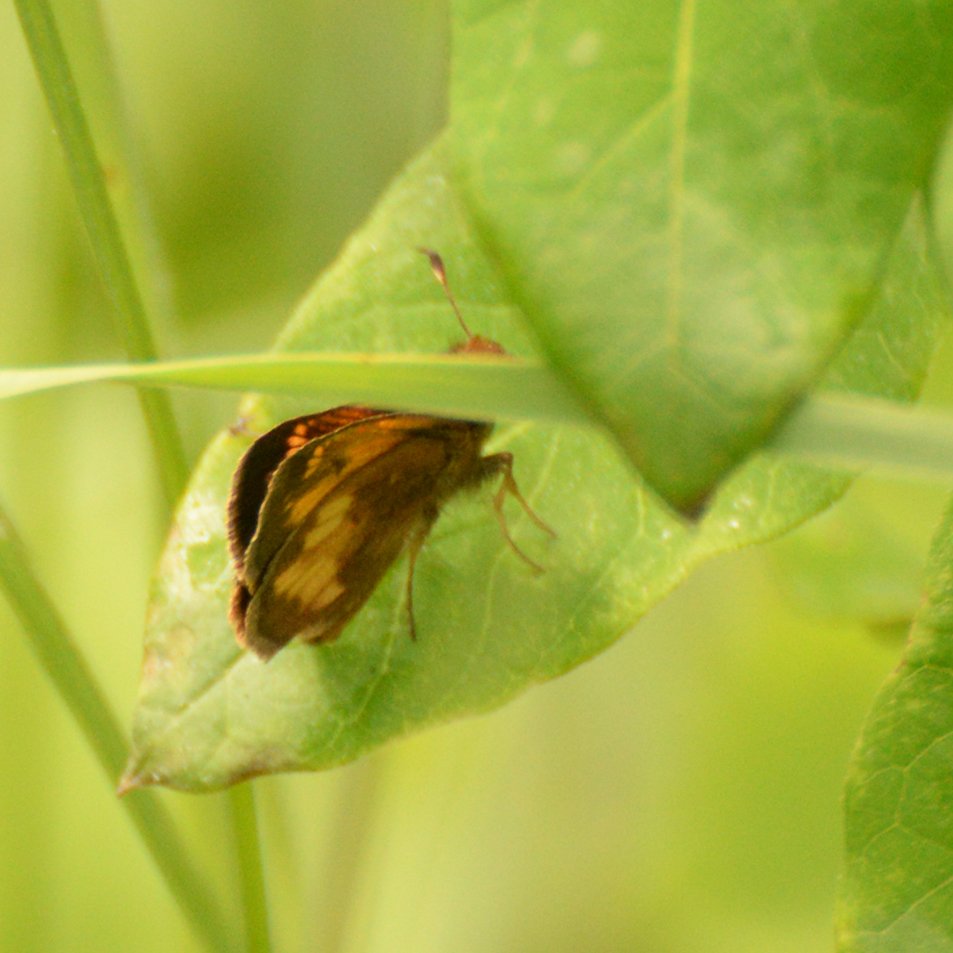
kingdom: Animalia
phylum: Arthropoda
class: Insecta
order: Lepidoptera
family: Hesperiidae
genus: Lon
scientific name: Lon hobomok
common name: Hobomok Skipper
